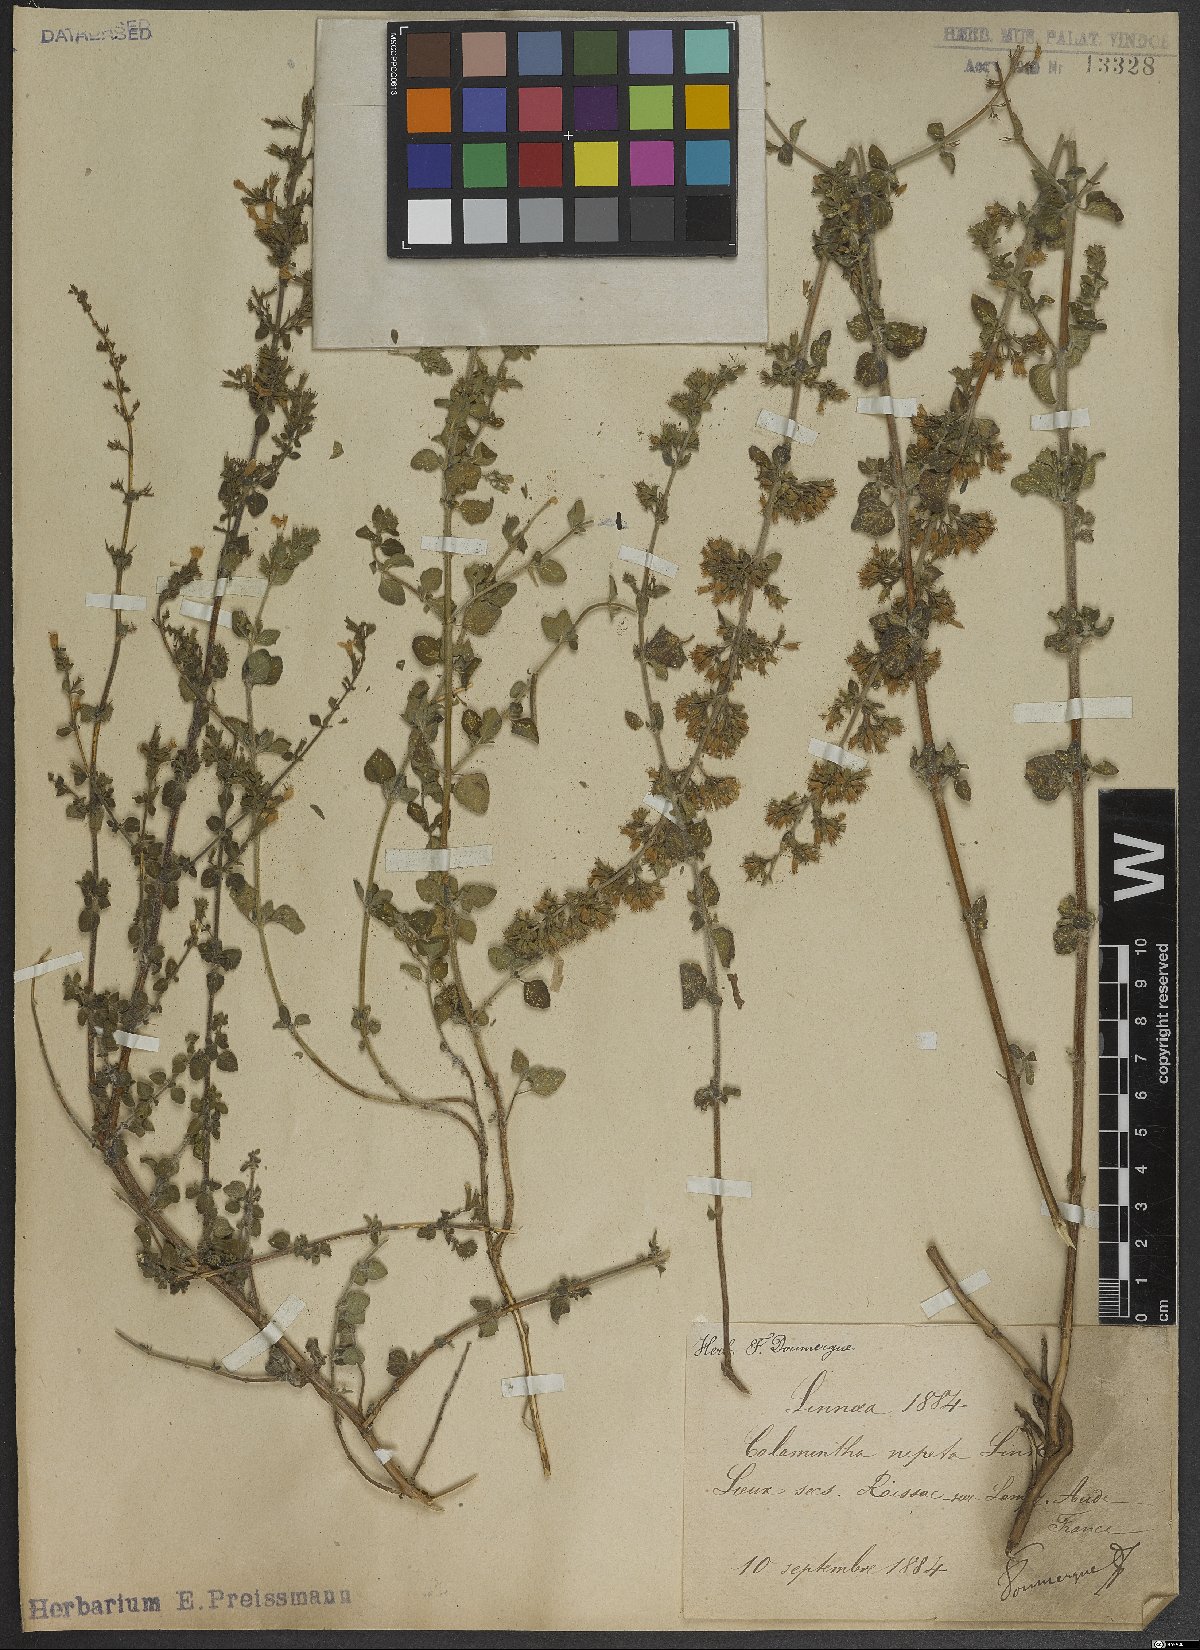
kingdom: Plantae
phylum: Tracheophyta
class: Magnoliopsida
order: Lamiales
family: Lamiaceae
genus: Clinopodium
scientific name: Clinopodium nepeta
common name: Lesser calamint
